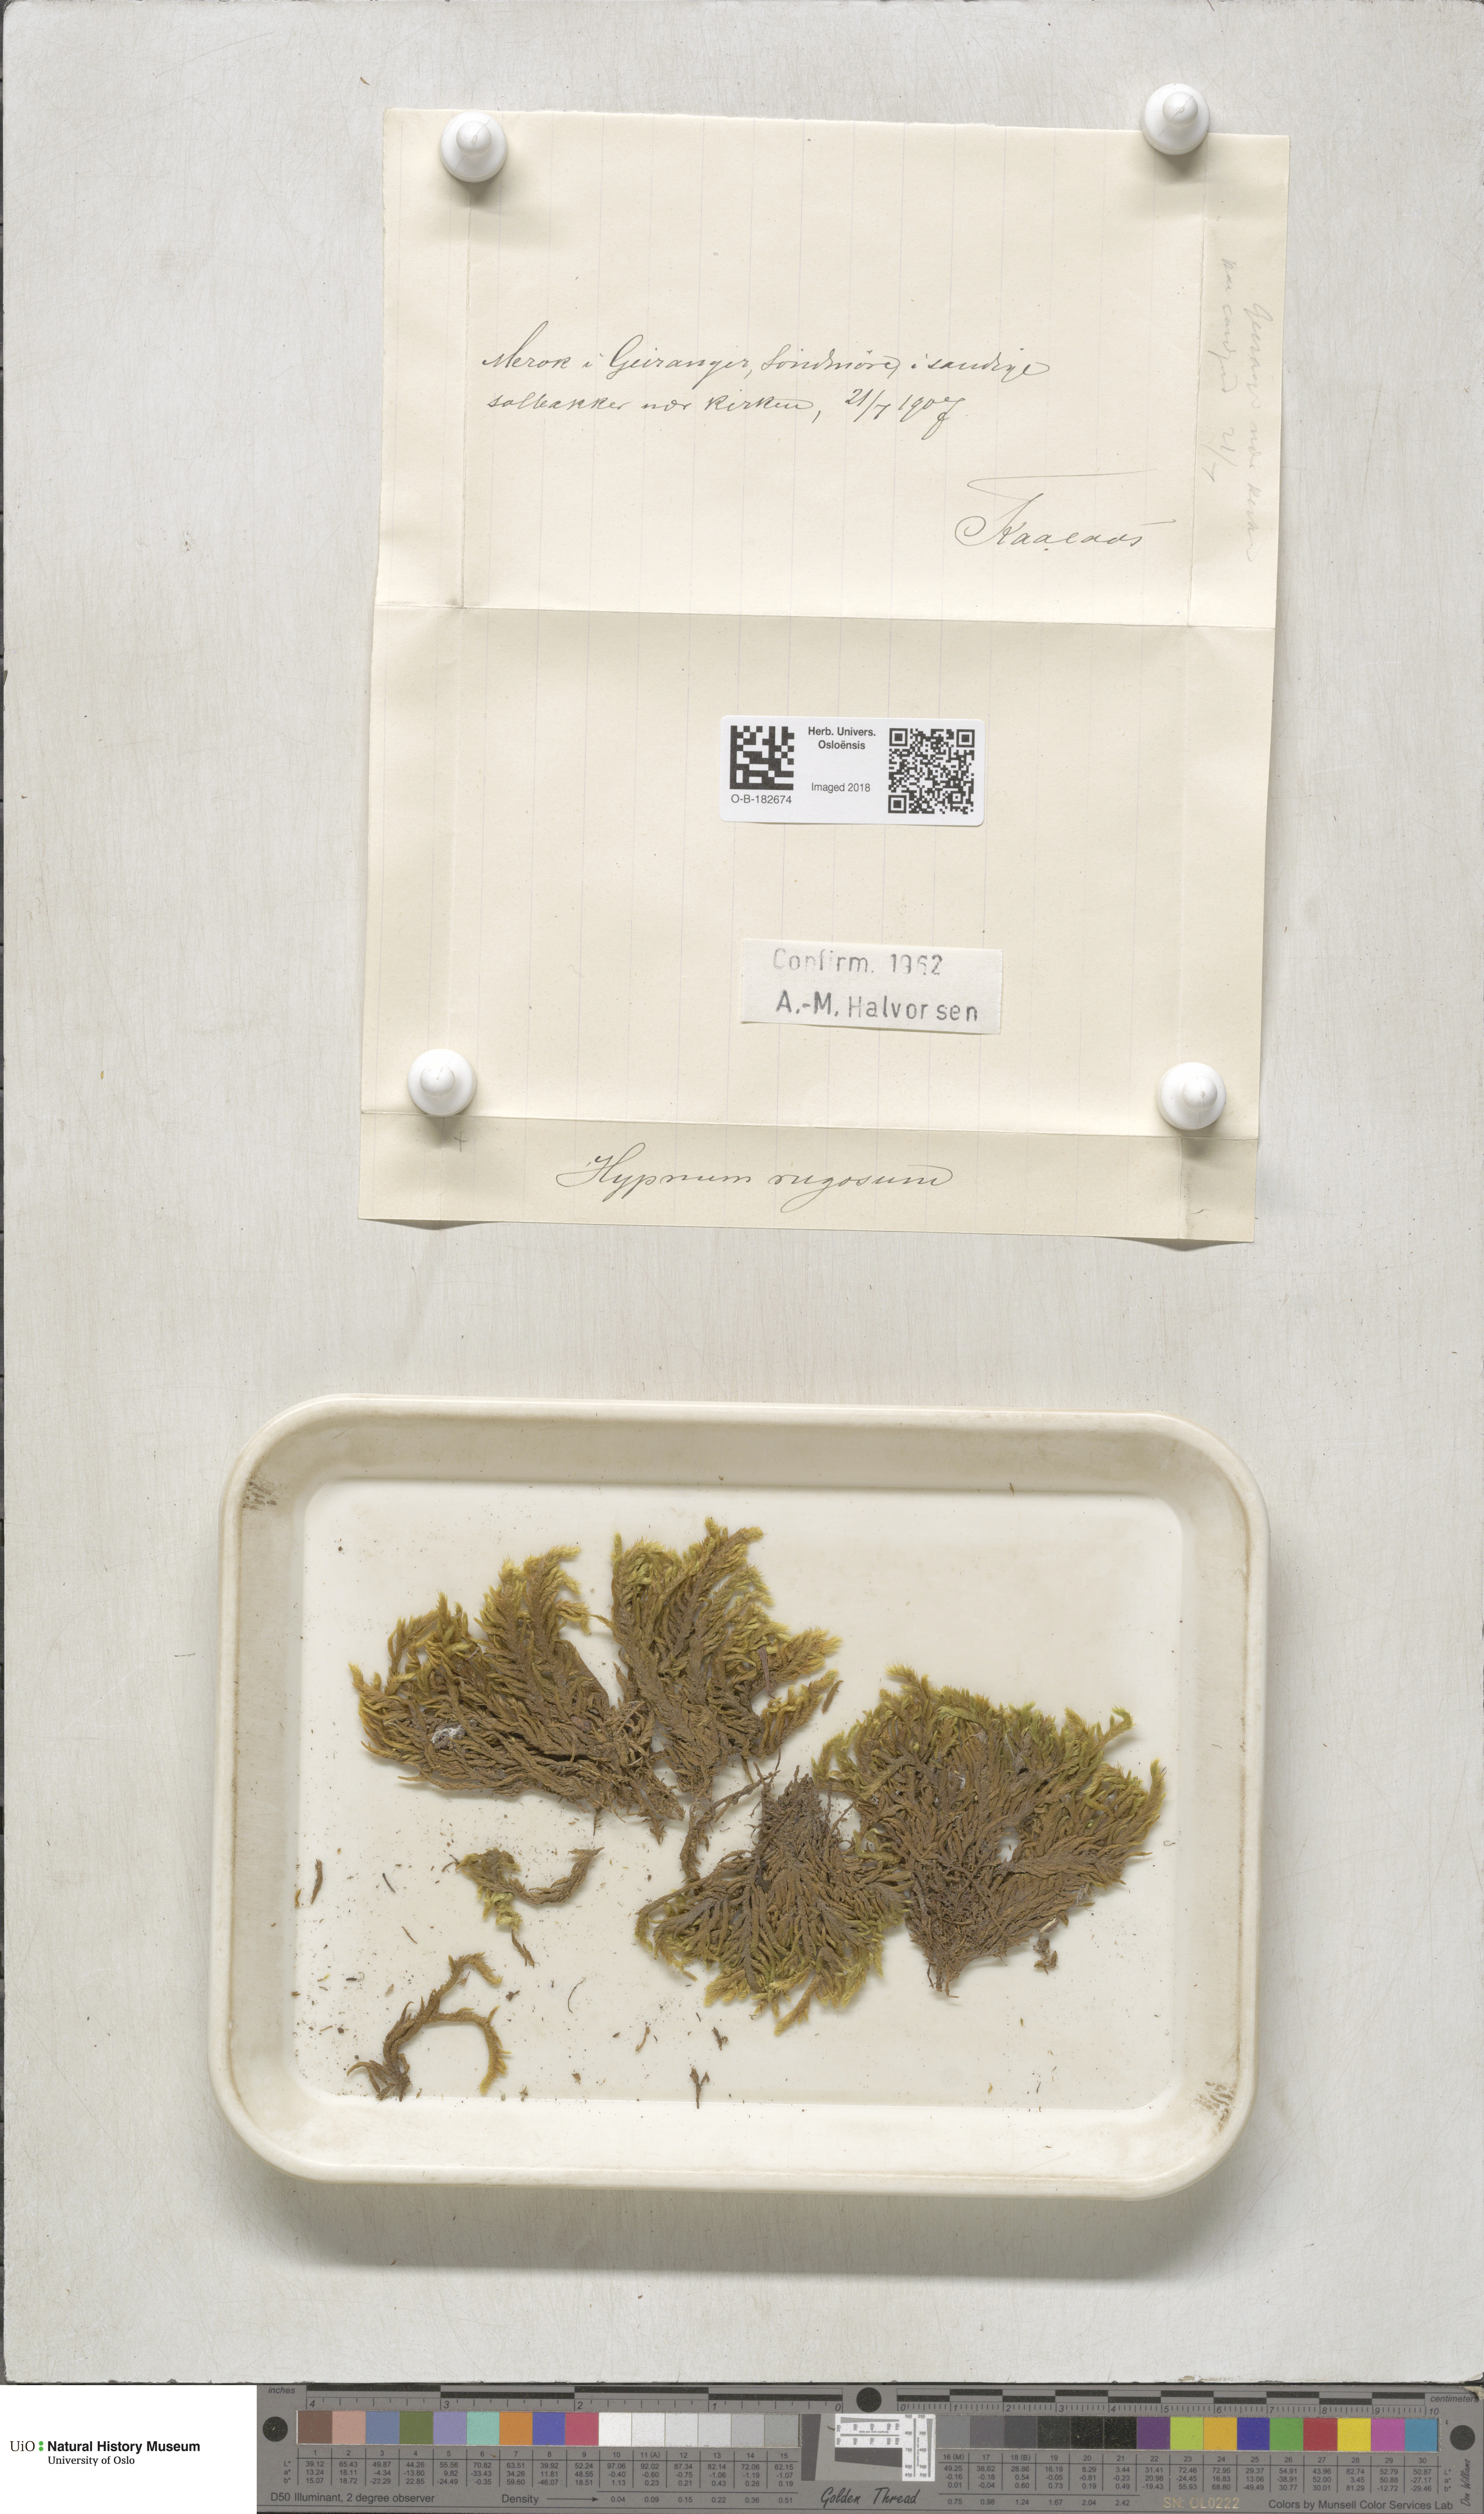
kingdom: Plantae
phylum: Bryophyta
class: Bryopsida
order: Hypnales
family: Rhytidiaceae
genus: Rhytidium
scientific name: Rhytidium rugosum
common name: Wrinkle-leaved moss
